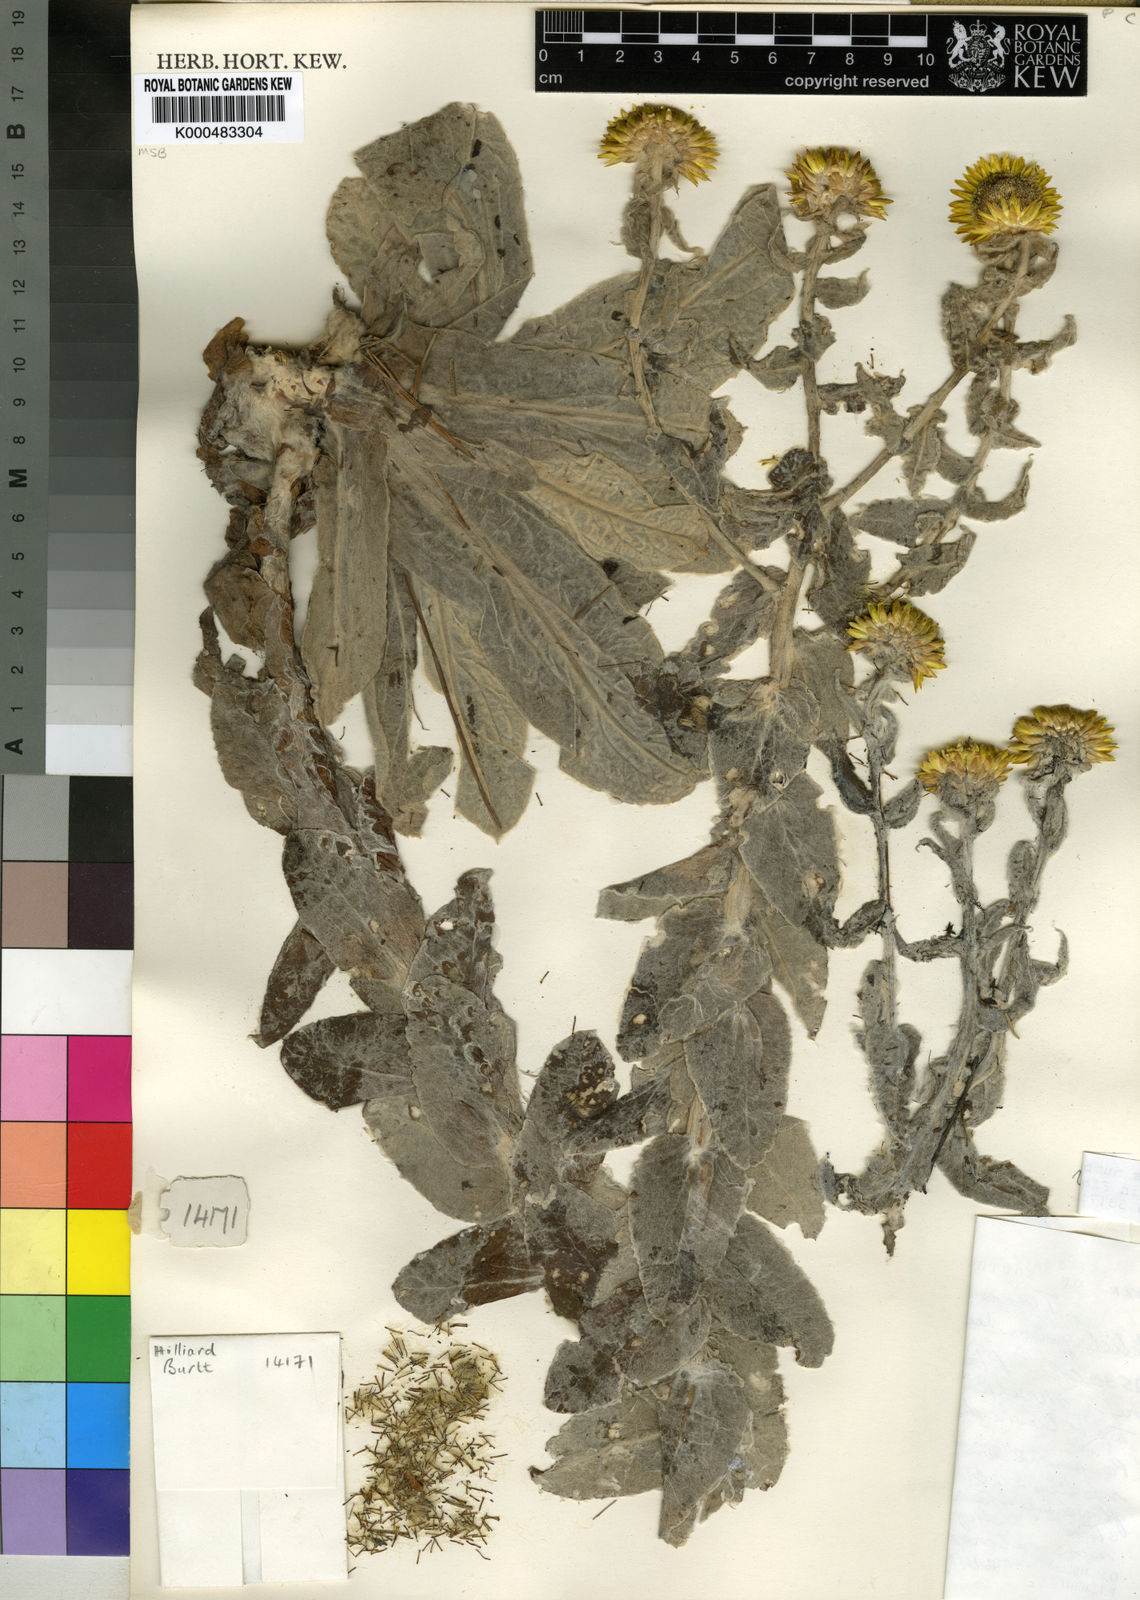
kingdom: Plantae
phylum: Tracheophyta
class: Magnoliopsida
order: Asterales
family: Asteraceae
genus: Helichrysum
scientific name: Helichrysum lesliei
